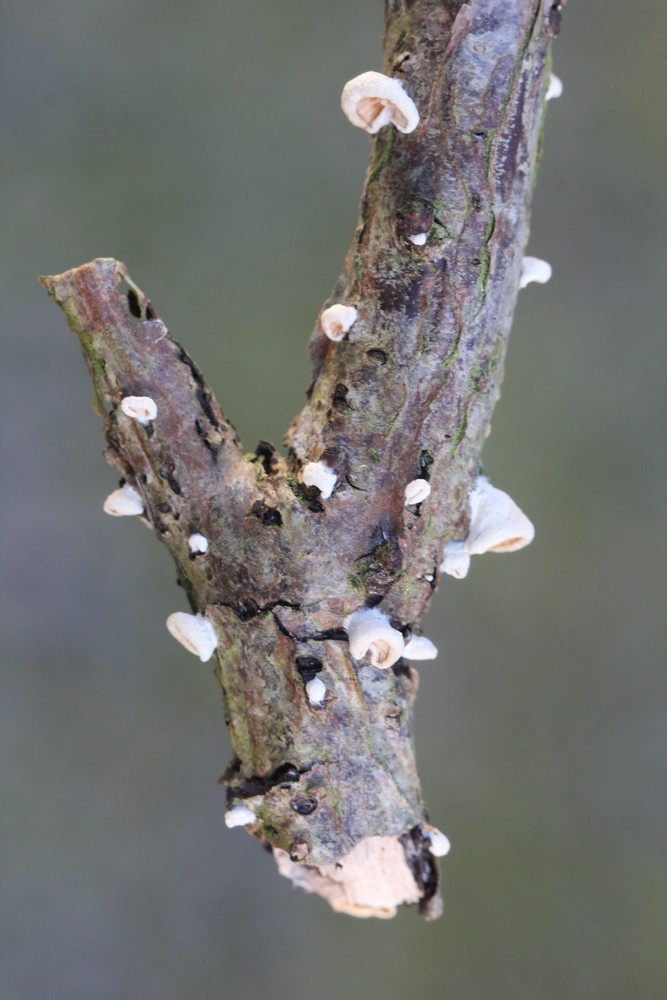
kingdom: Fungi
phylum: Basidiomycota
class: Agaricomycetes
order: Agaricales
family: Crepidotaceae
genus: Crepidotus
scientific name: Crepidotus
